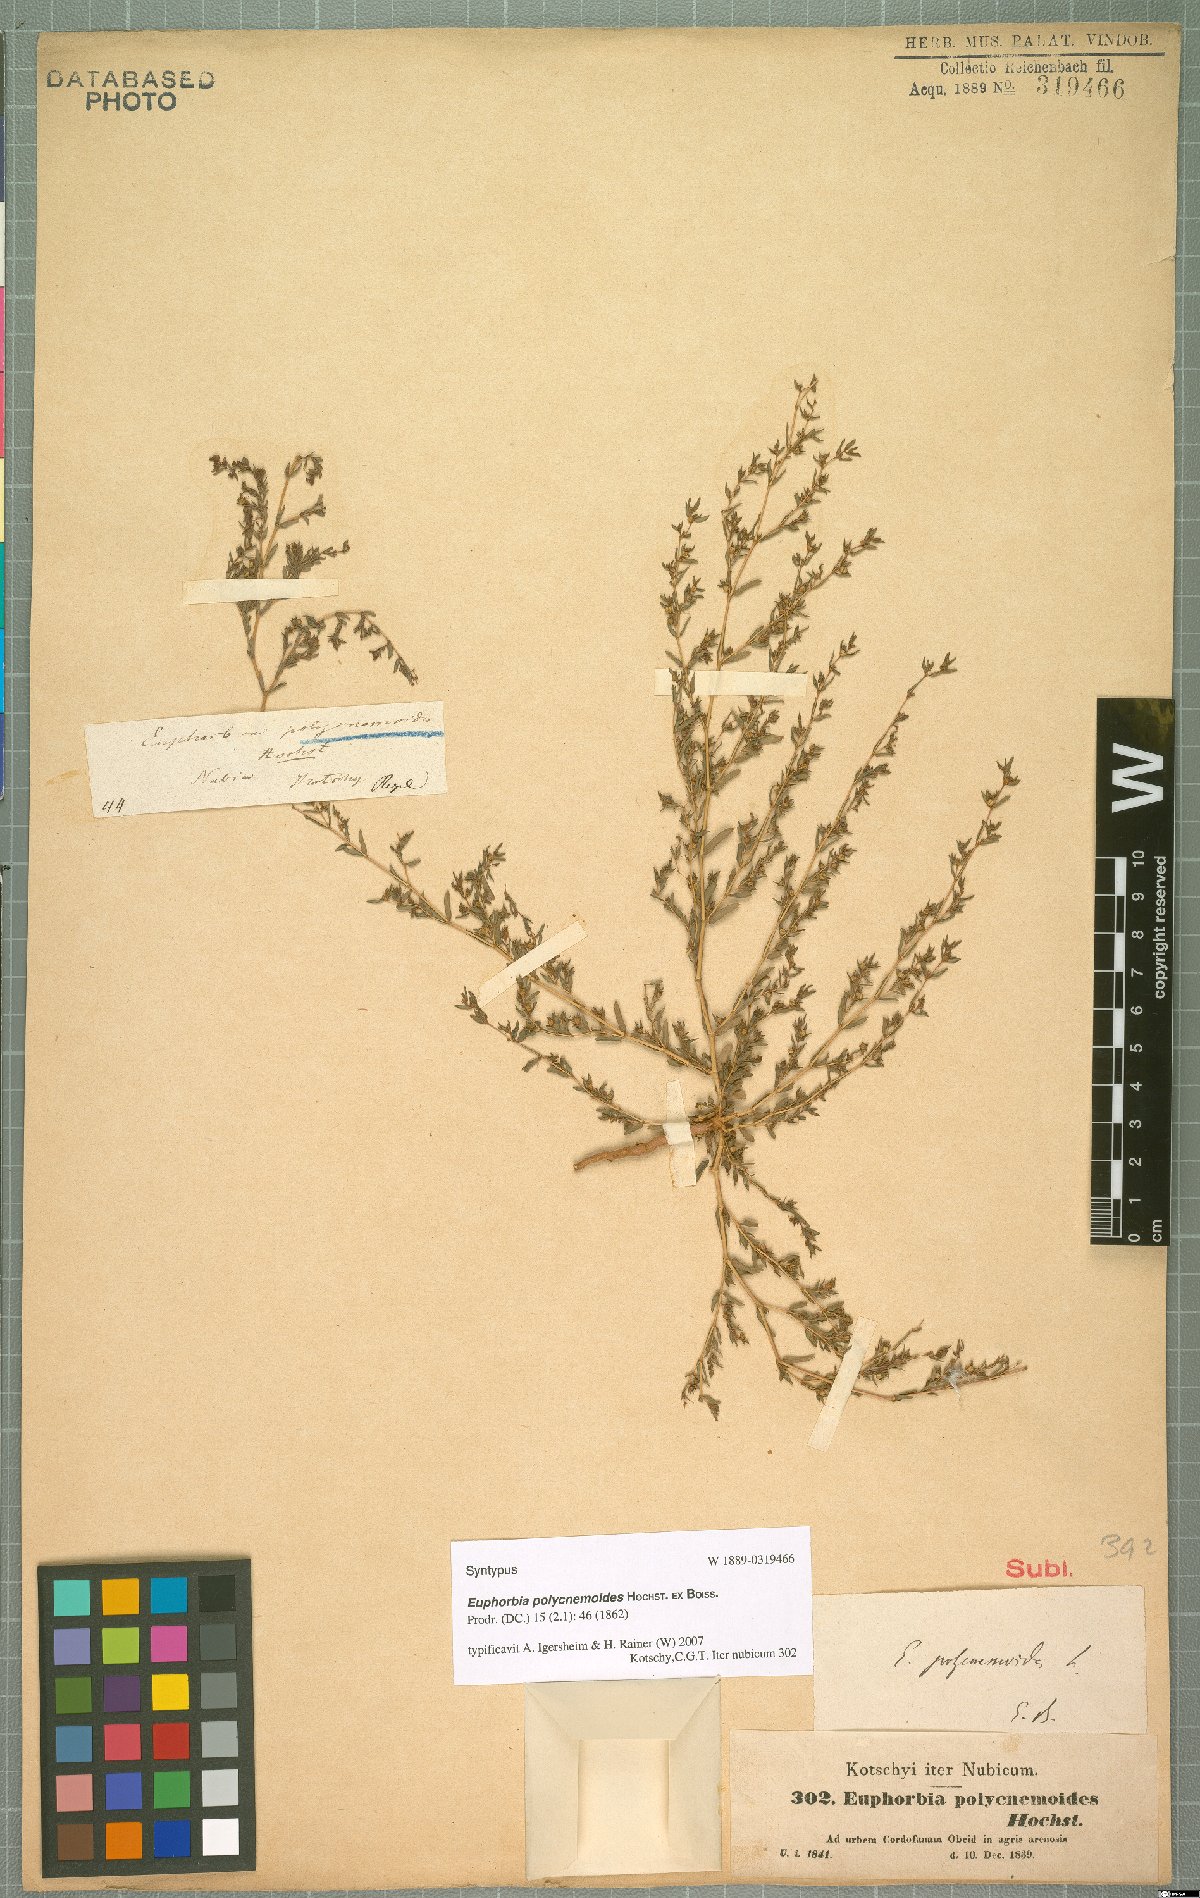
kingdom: Plantae
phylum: Tracheophyta
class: Magnoliopsida
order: Malpighiales
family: Euphorbiaceae
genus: Euphorbia
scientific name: Euphorbia polycnemoides
